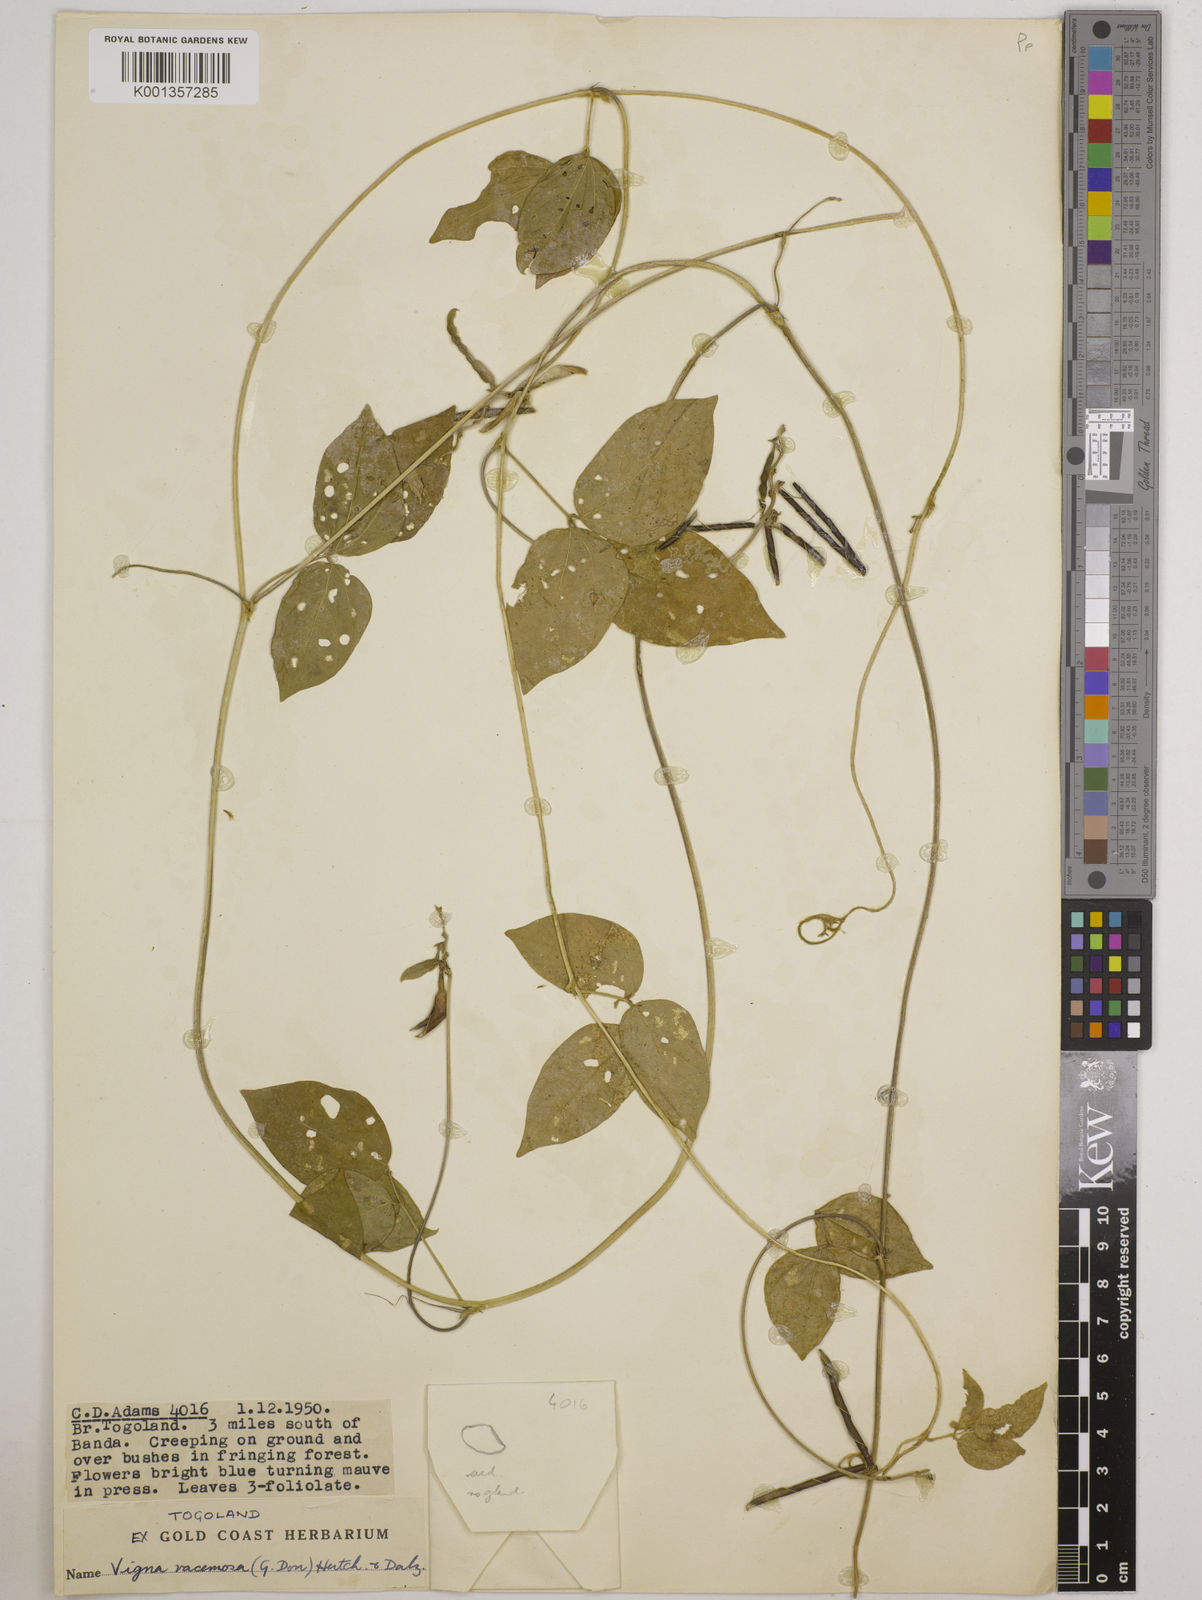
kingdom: Plantae
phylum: Tracheophyta
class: Magnoliopsida
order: Fabales
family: Fabaceae
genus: Vigna
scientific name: Vigna racemosa
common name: Beans not eaten
